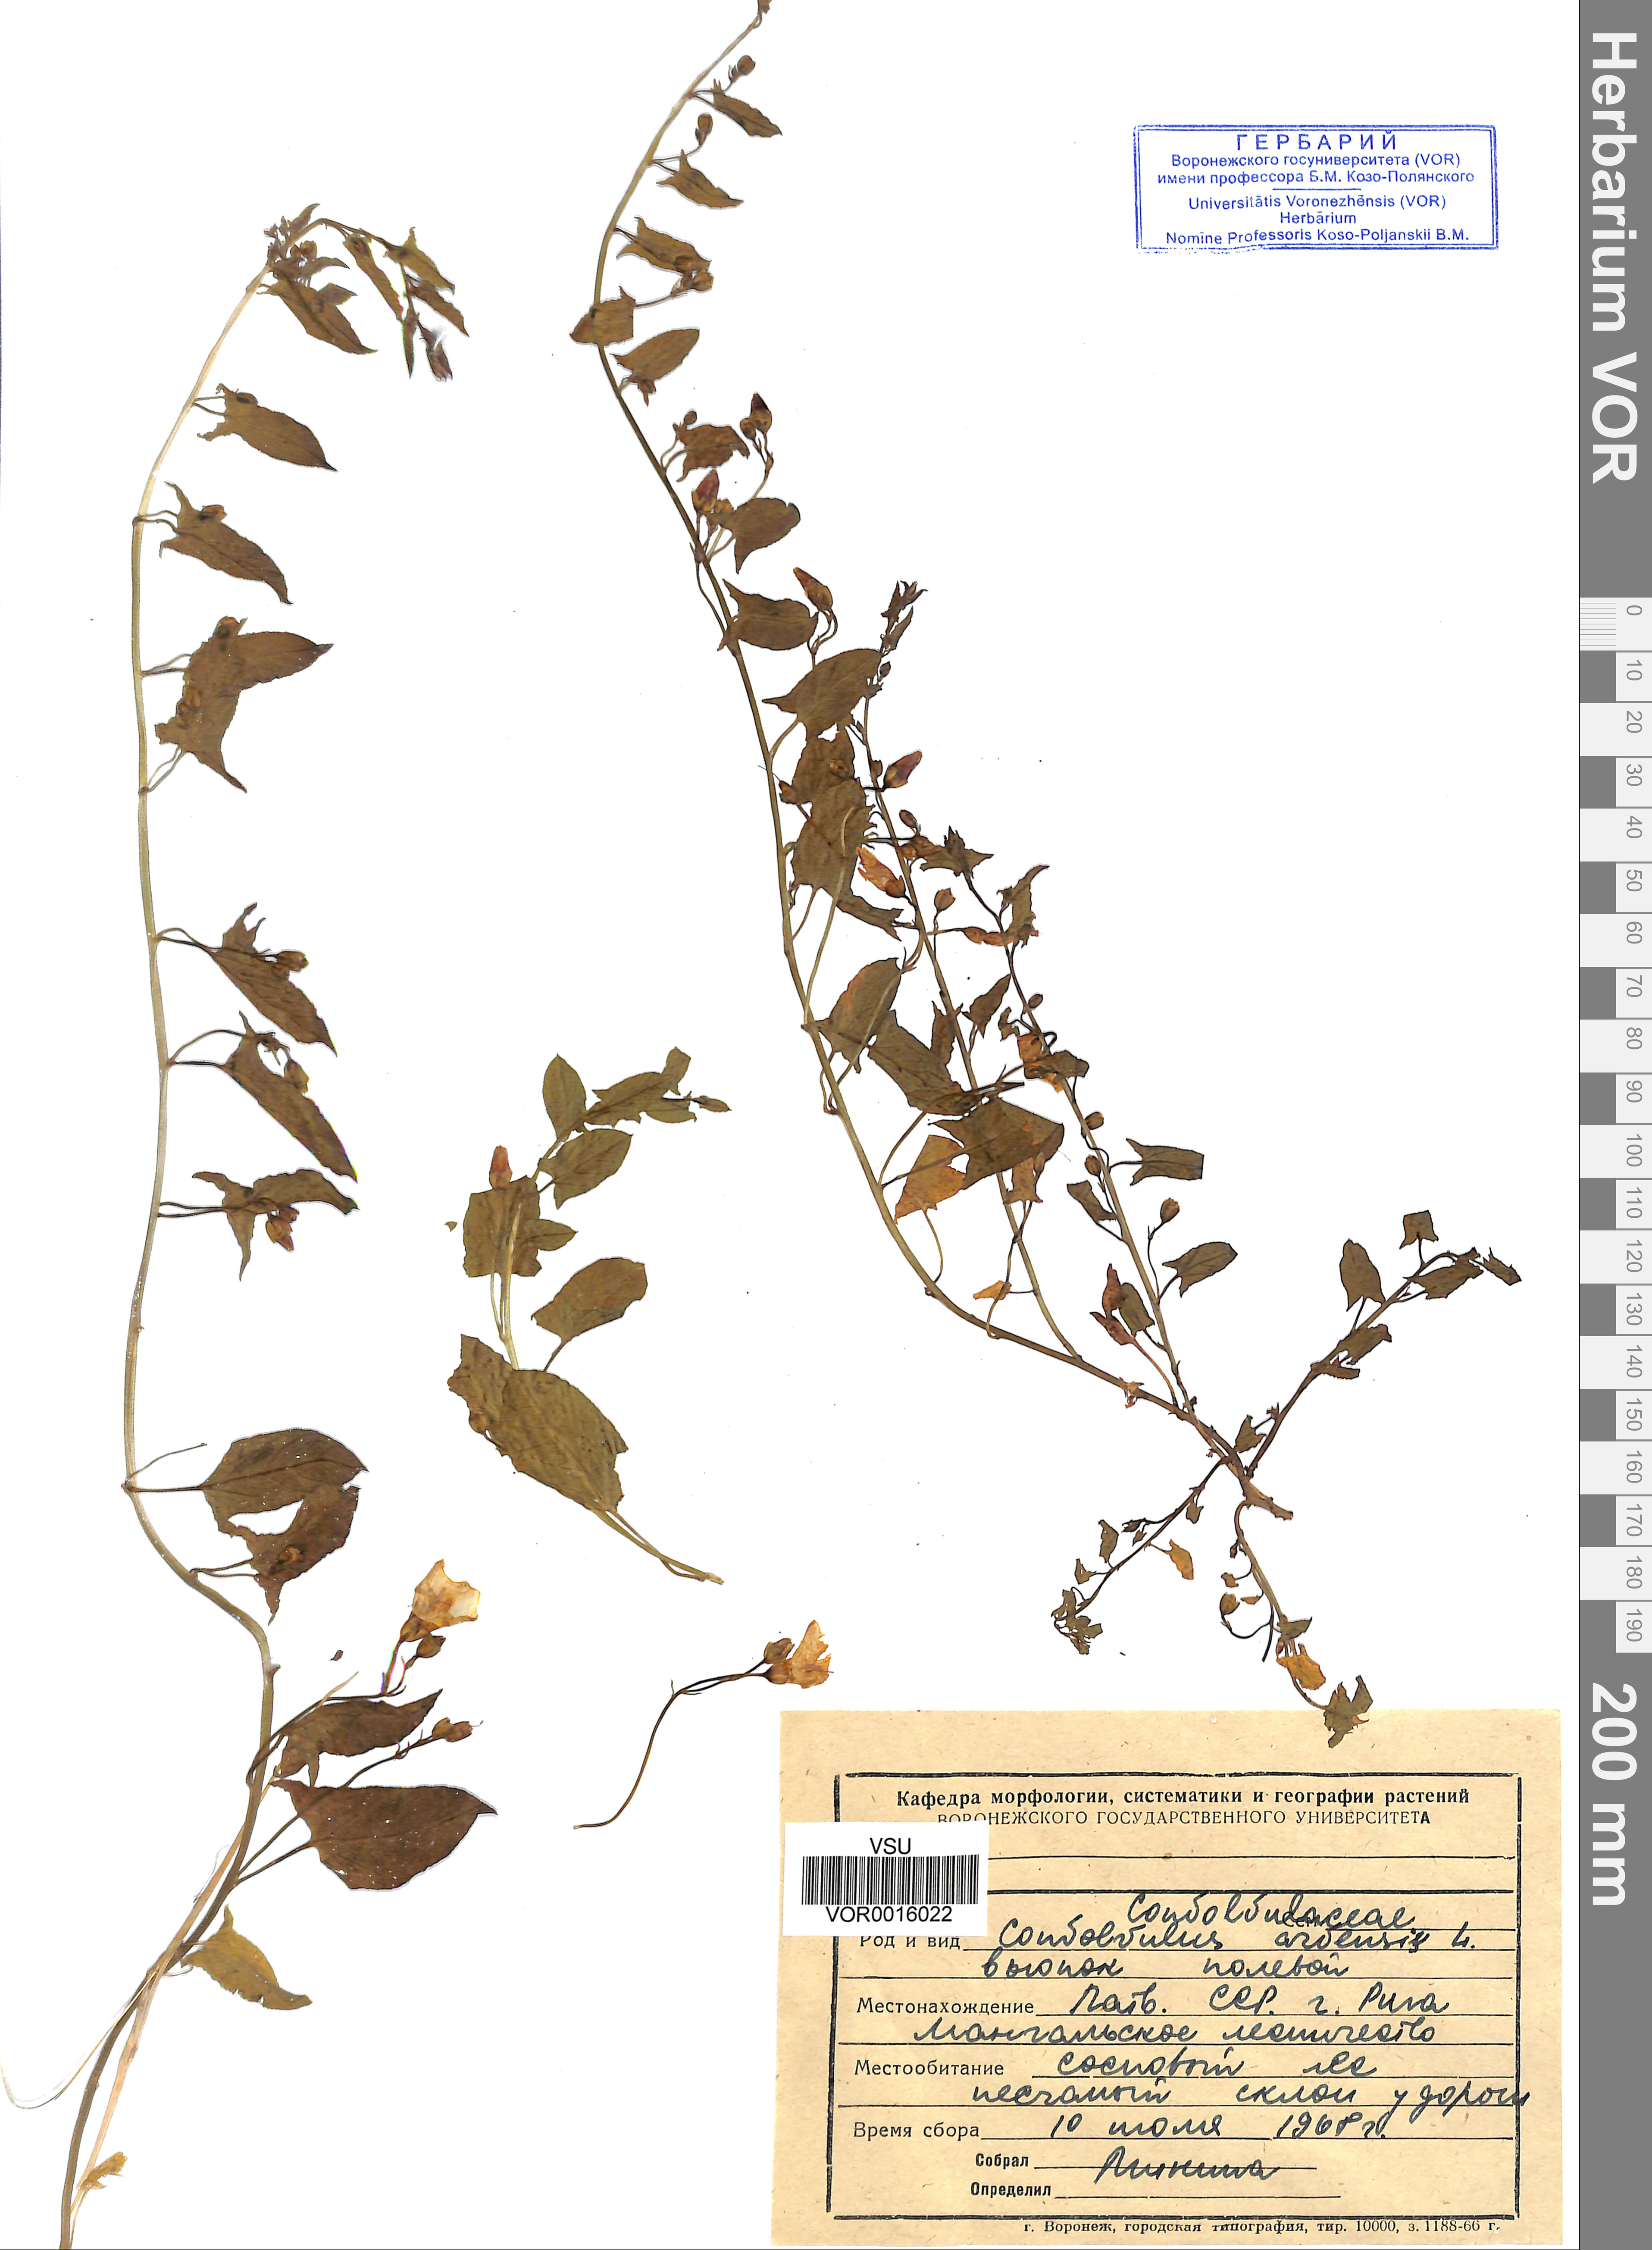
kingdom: Plantae
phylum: Tracheophyta
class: Magnoliopsida
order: Solanales
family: Convolvulaceae
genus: Convolvulus
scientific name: Convolvulus arvensis
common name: Field bindweed
